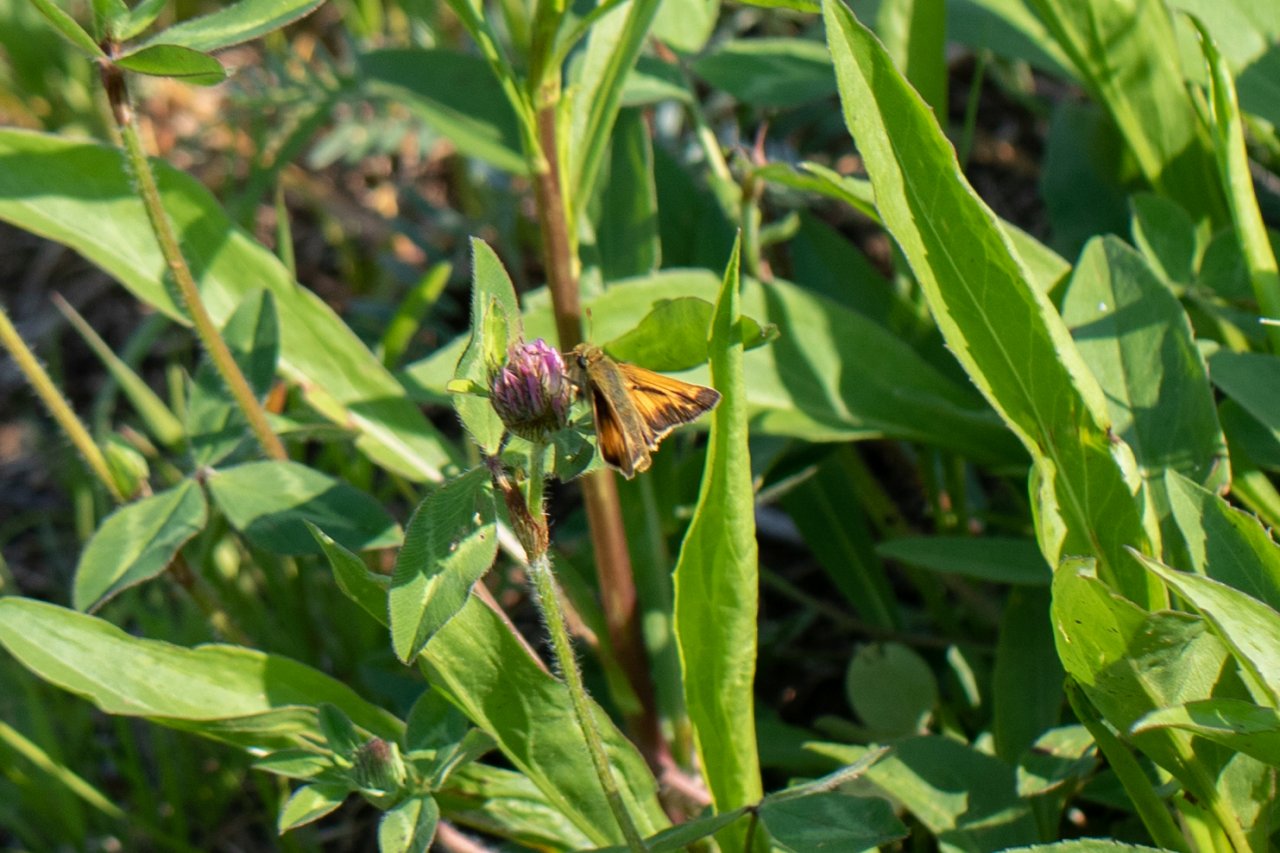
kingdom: Animalia
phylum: Arthropoda
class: Insecta
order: Lepidoptera
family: Hesperiidae
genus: Hesperia
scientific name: Hesperia sassacus
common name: Sassacus Skipper
